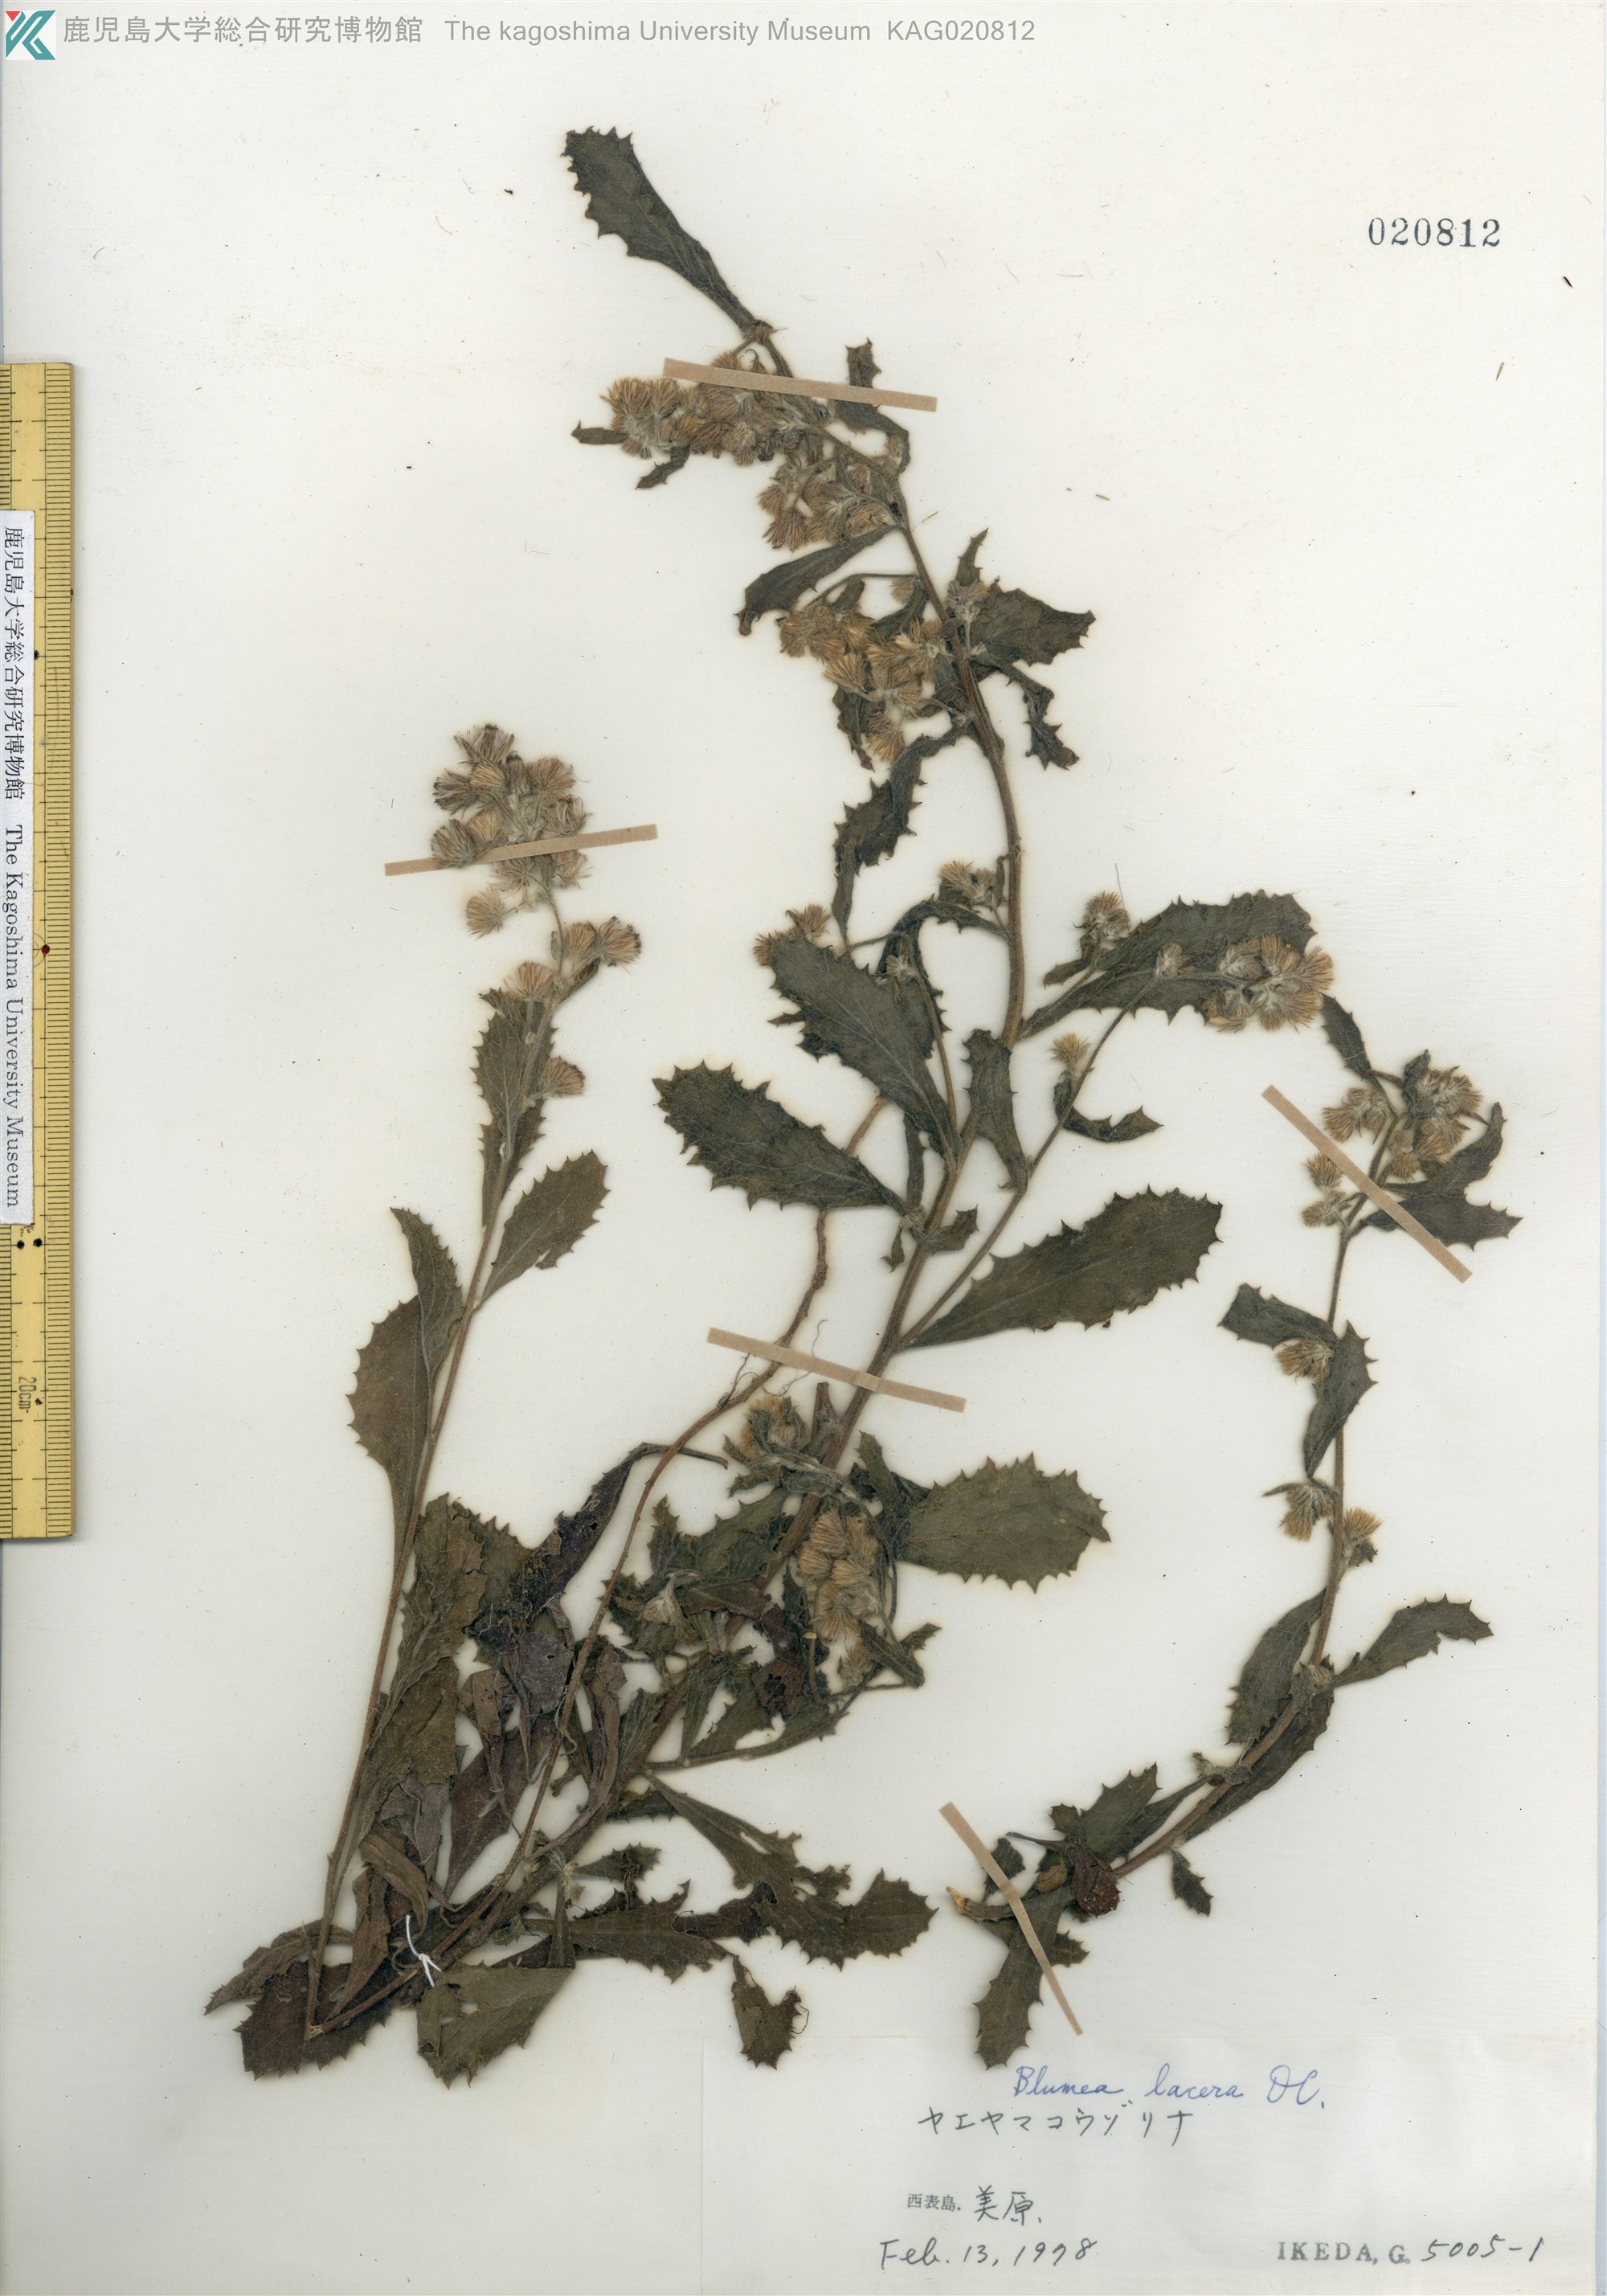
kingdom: Plantae
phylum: Tracheophyta
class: Magnoliopsida
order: Asterales
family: Asteraceae
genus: Blumea
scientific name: Blumea lacera
